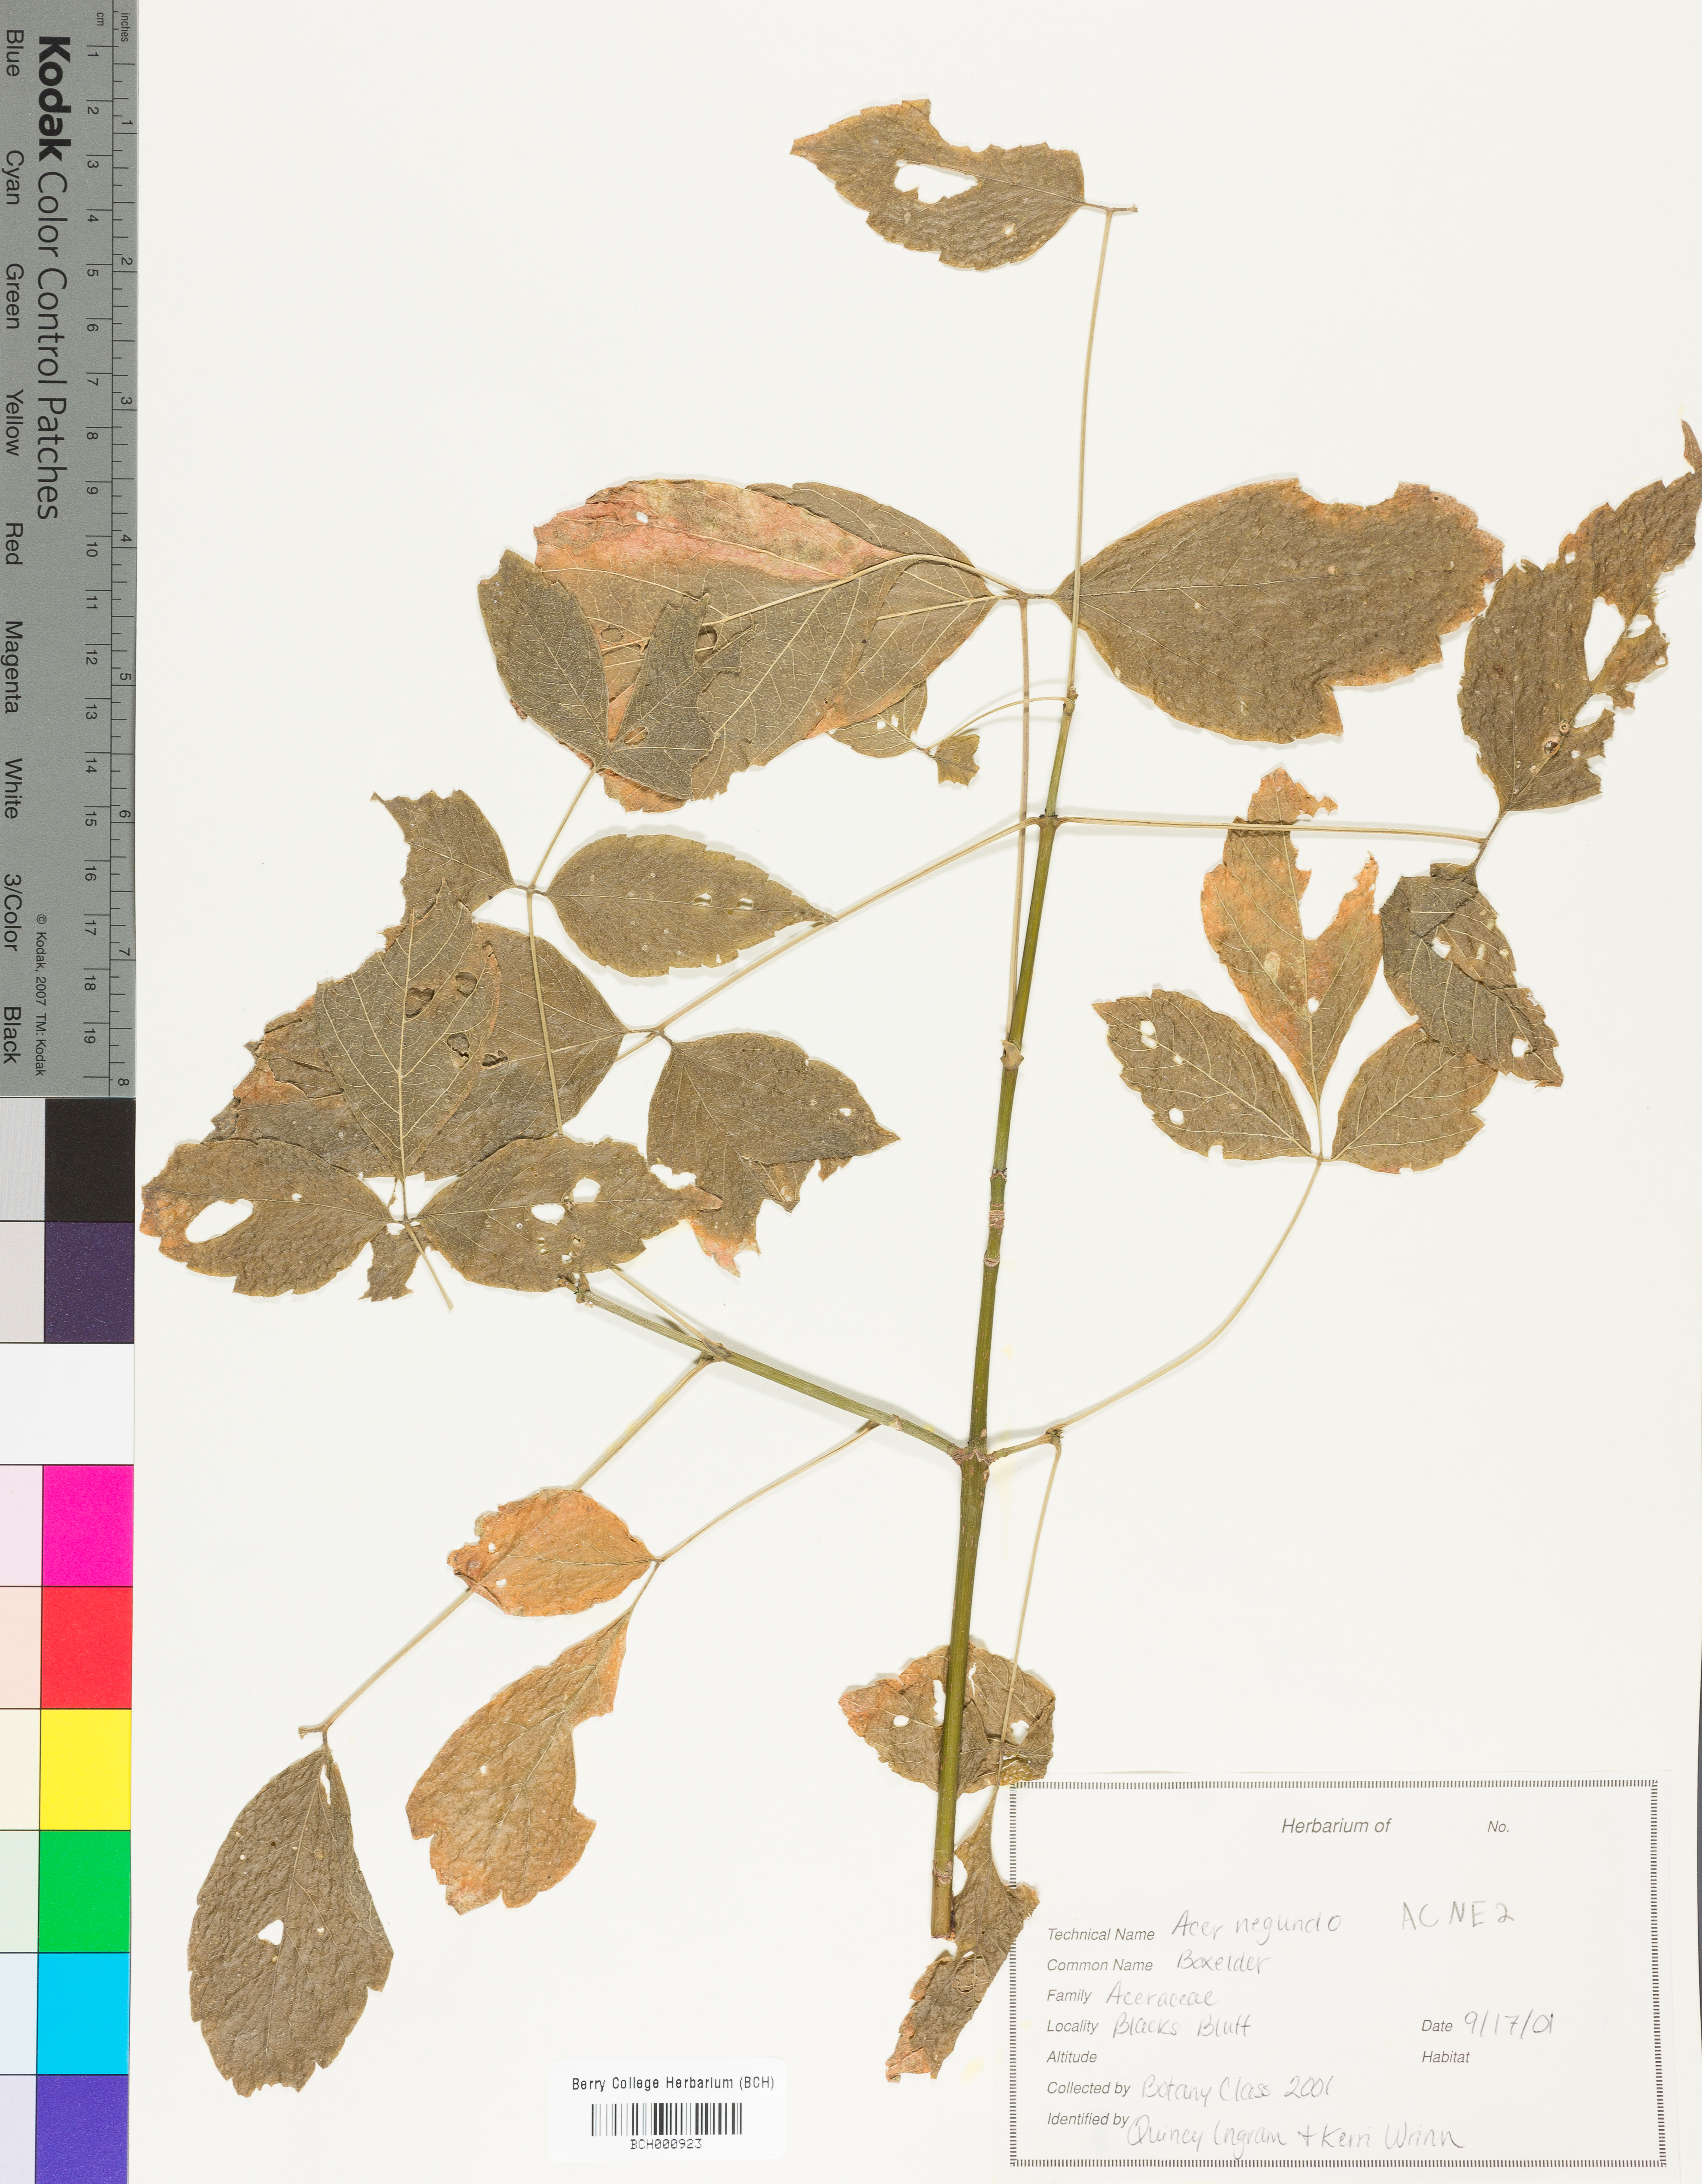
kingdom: Plantae
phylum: Tracheophyta
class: Magnoliopsida
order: Sapindales
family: Sapindaceae
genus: Acer
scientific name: Acer negundo
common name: Ashleaf maple
